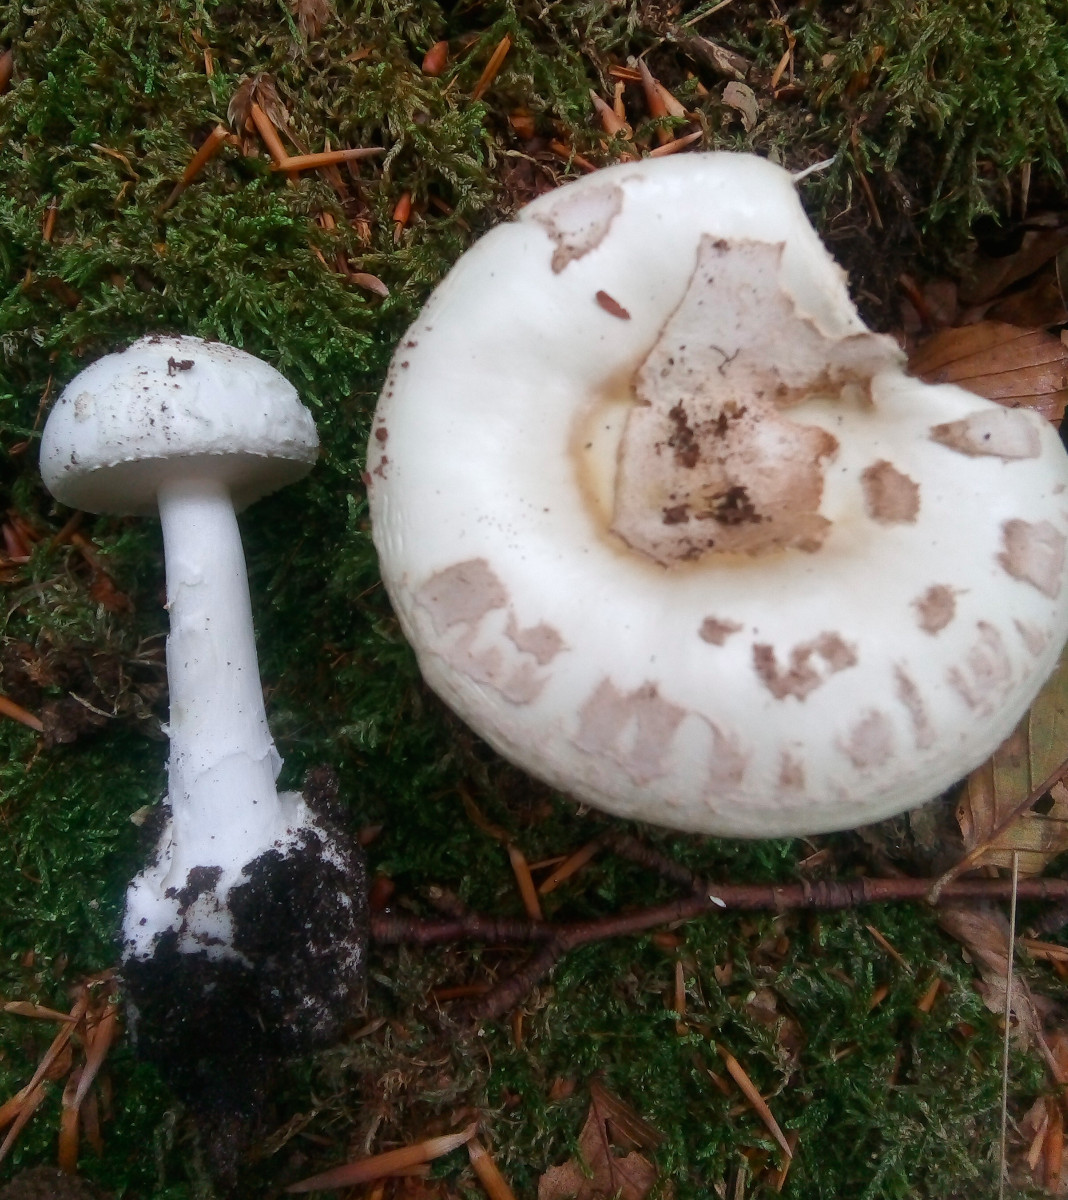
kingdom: Fungi
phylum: Basidiomycota
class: Agaricomycetes
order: Agaricales
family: Amanitaceae
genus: Amanita
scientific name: Amanita citrina
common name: False death-cap
